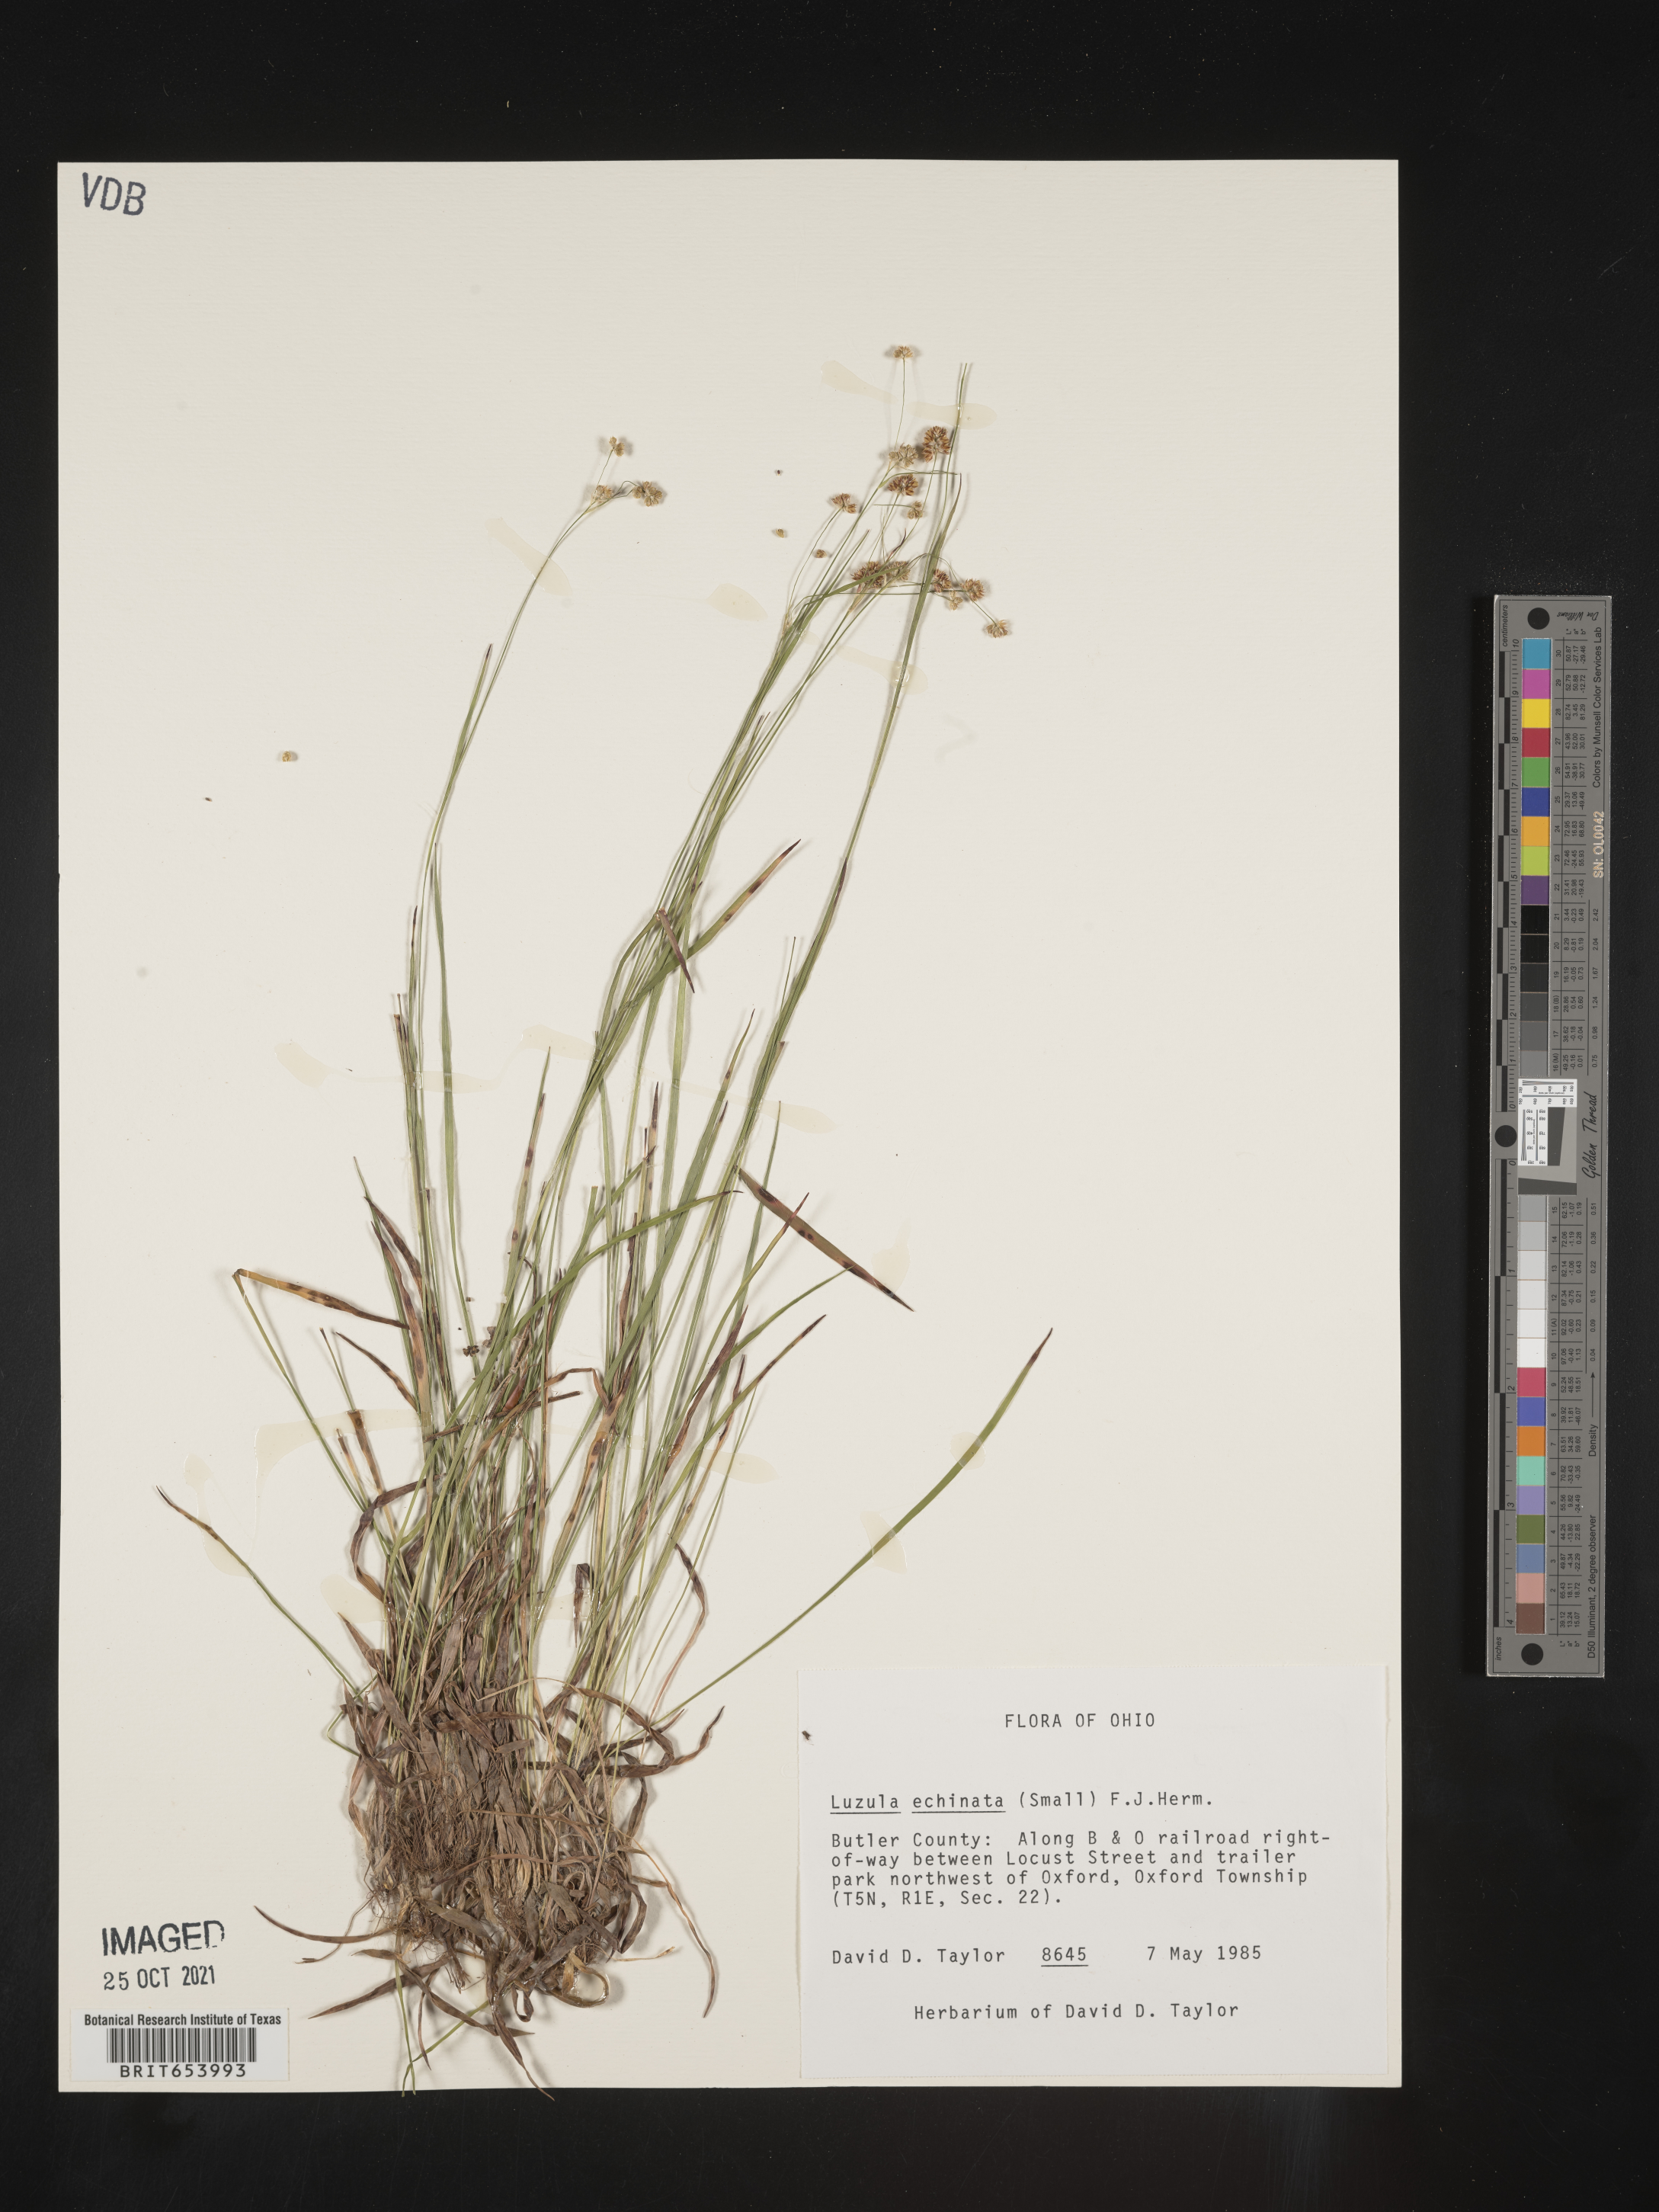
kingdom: Plantae
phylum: Tracheophyta
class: Liliopsida
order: Poales
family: Juncaceae
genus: Luzula
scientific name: Luzula echinata
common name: Hedgehog woodrush
